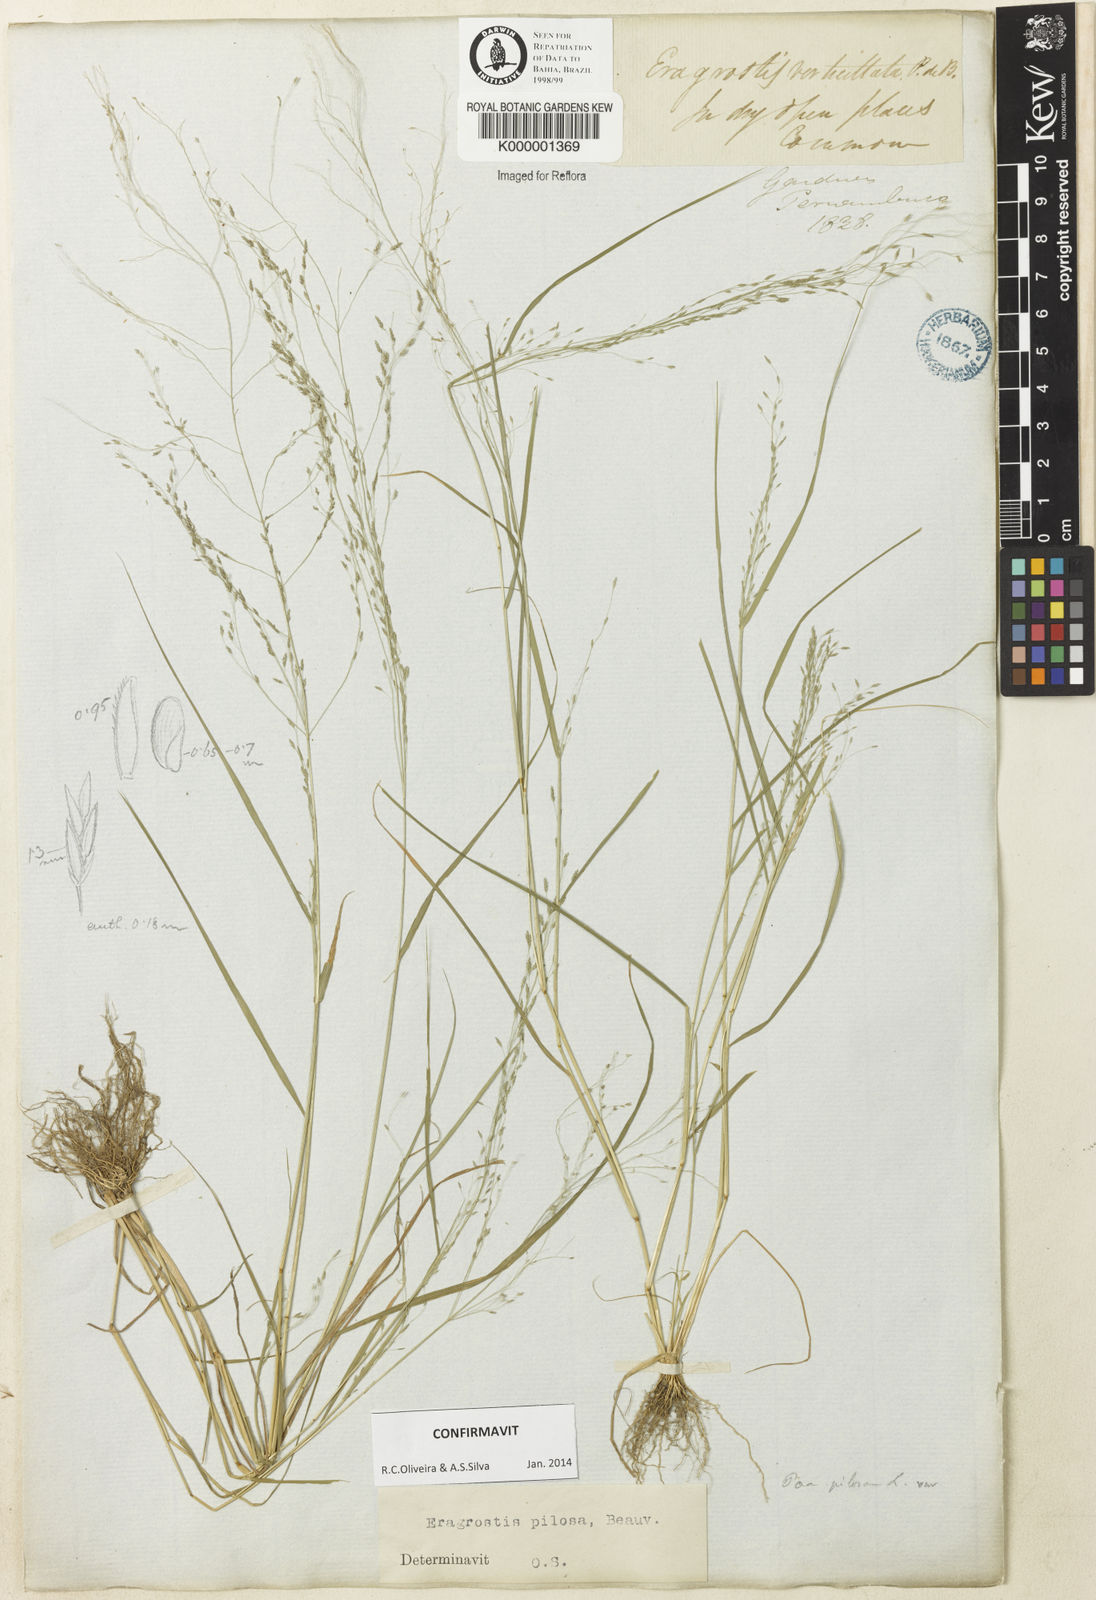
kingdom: Plantae
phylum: Tracheophyta
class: Liliopsida
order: Poales
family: Poaceae
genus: Eragrostis
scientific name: Eragrostis pilosa
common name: Indian lovegrass
